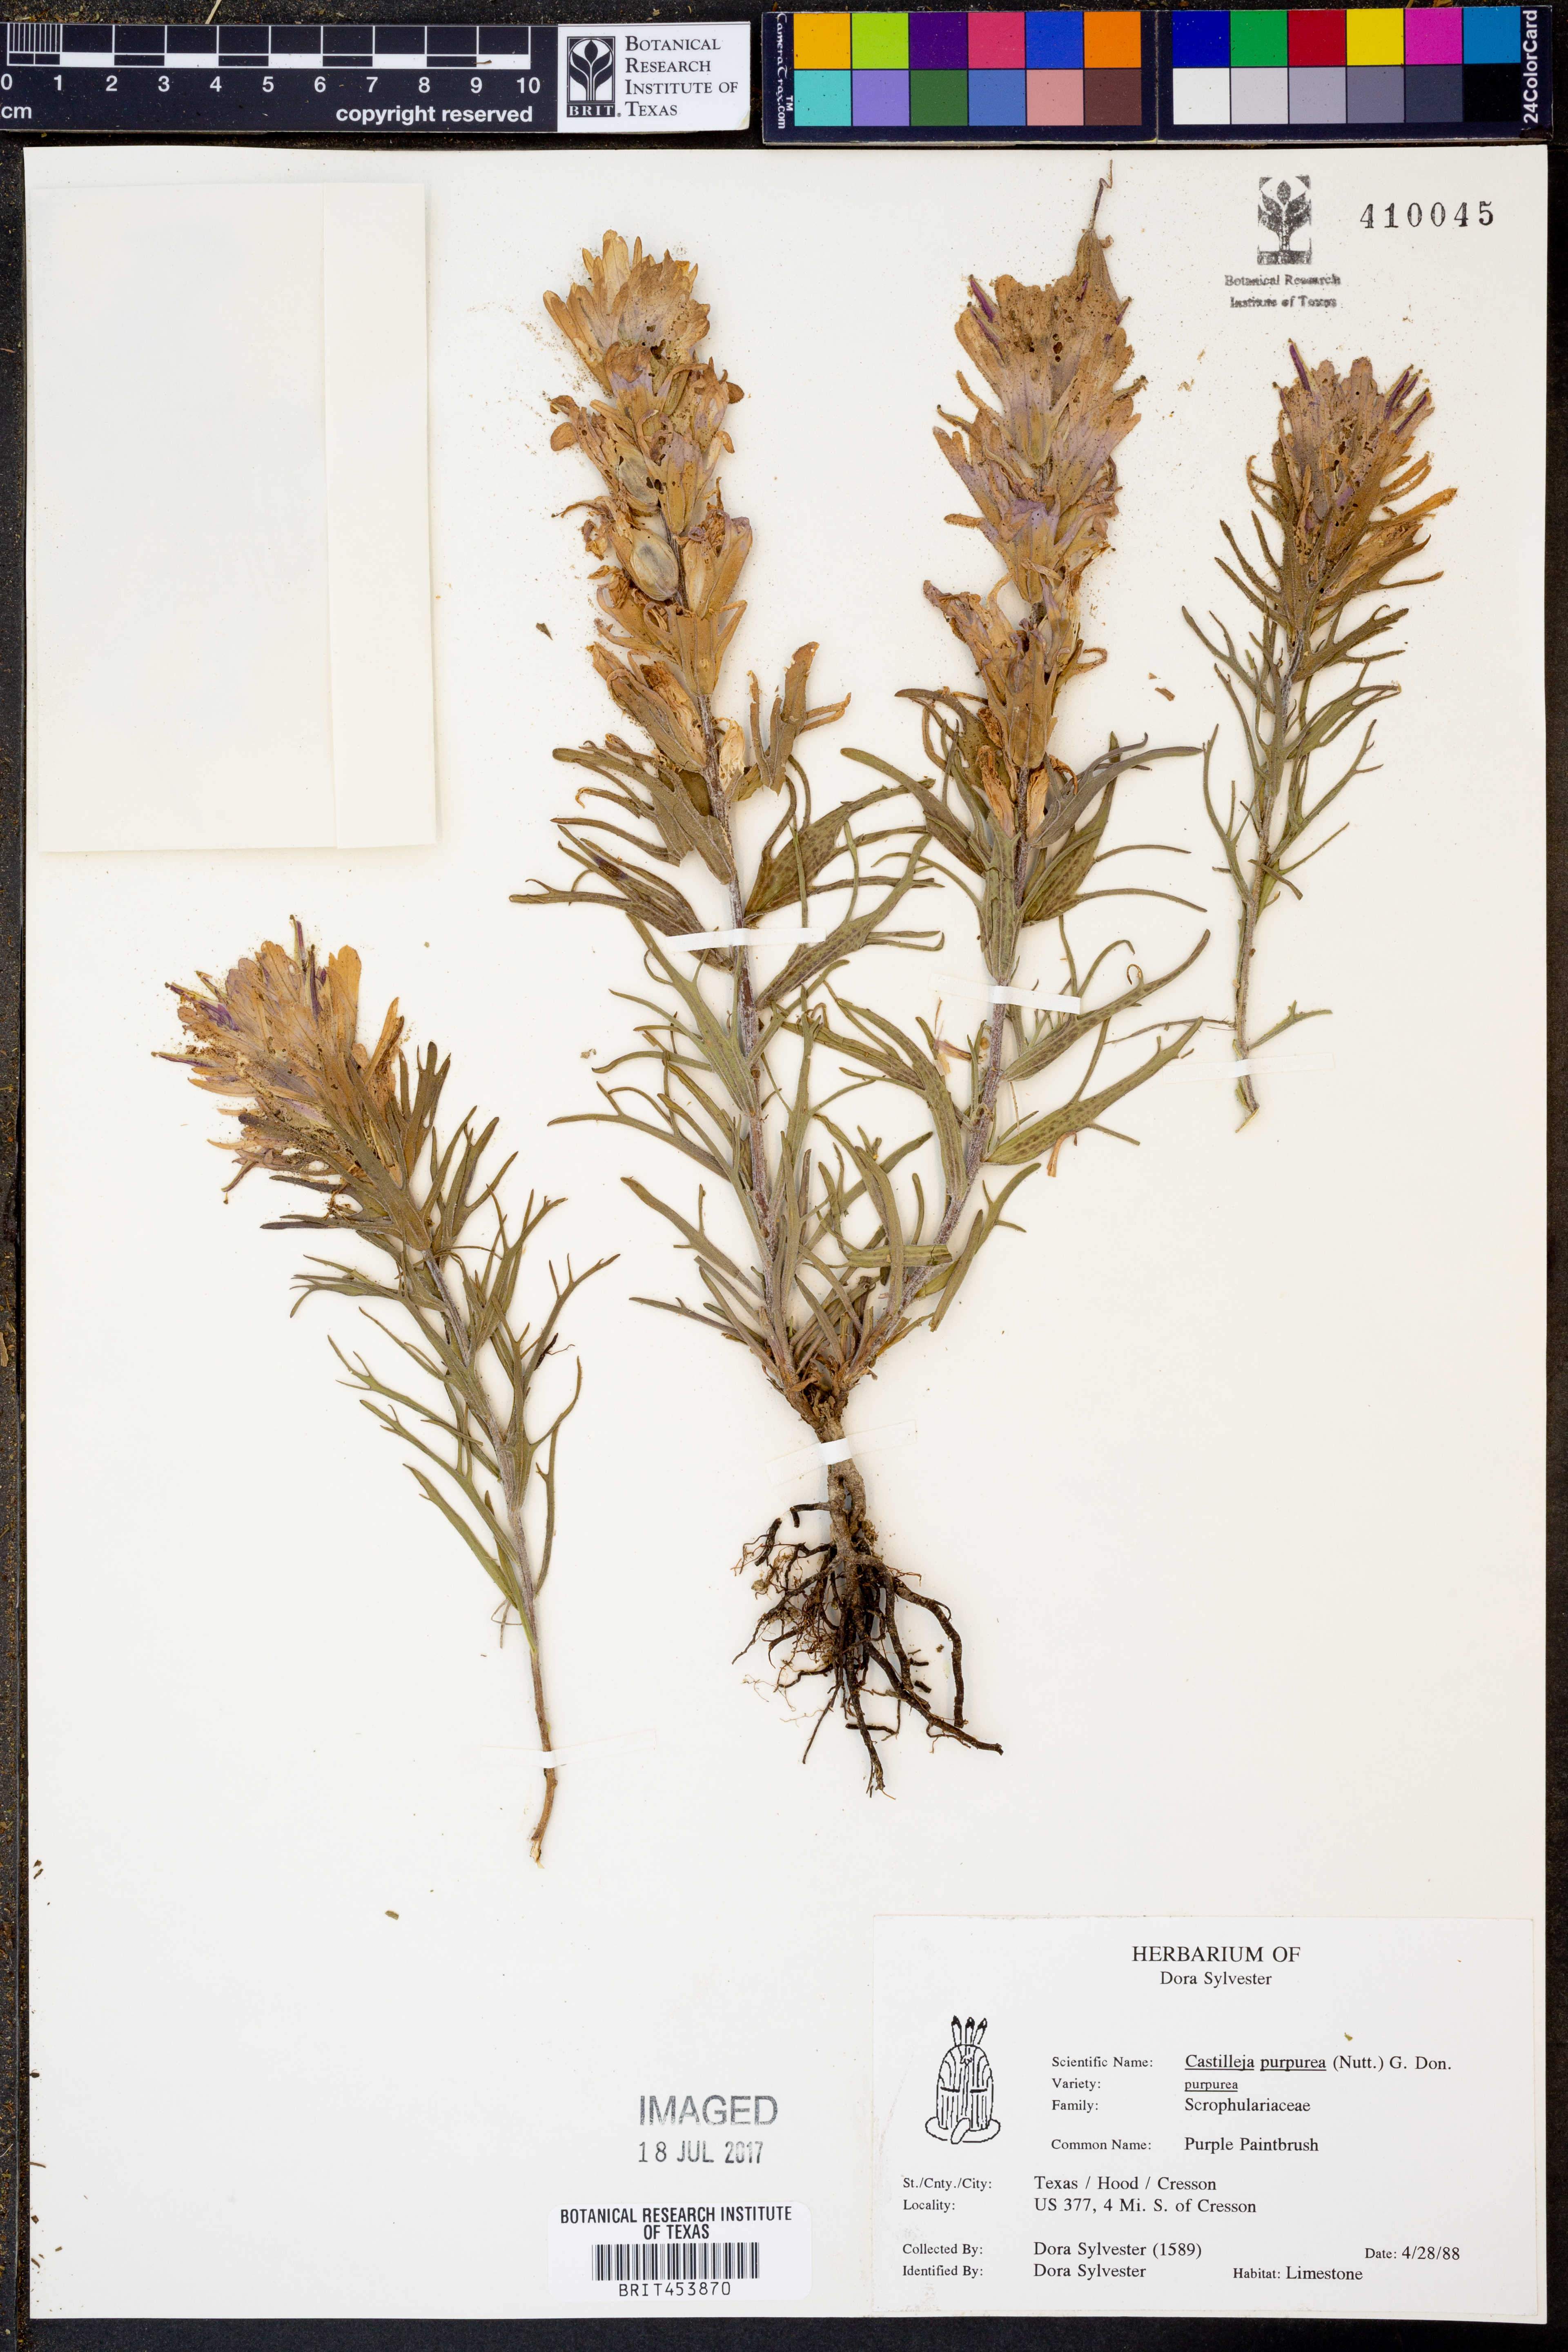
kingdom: Plantae
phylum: Tracheophyta
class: Magnoliopsida
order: Lamiales
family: Orobanchaceae
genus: Castilleja
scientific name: Castilleja purpurea
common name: Plains paintbrush
